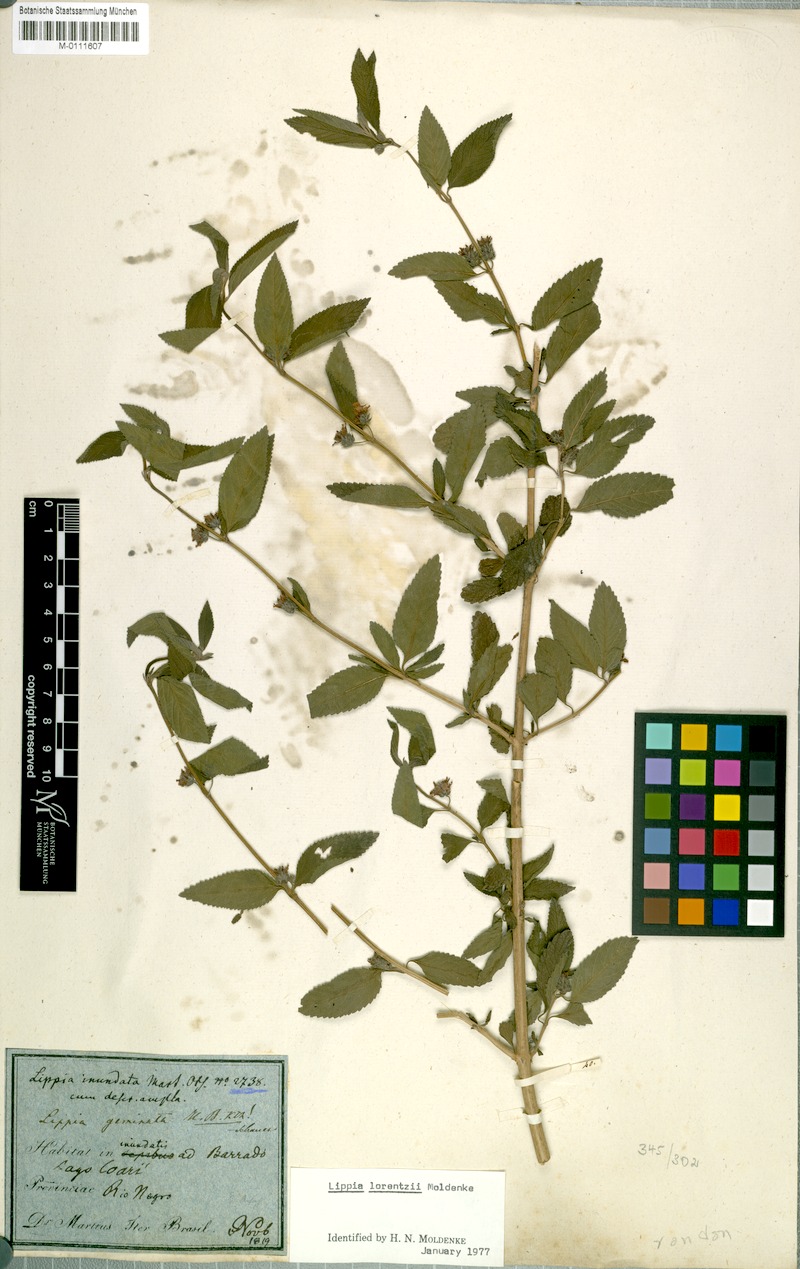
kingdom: Plantae
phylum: Tracheophyta
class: Magnoliopsida
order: Lamiales
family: Verbenaceae
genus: Lippia
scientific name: Lippia alba
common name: Bushy matgrass
